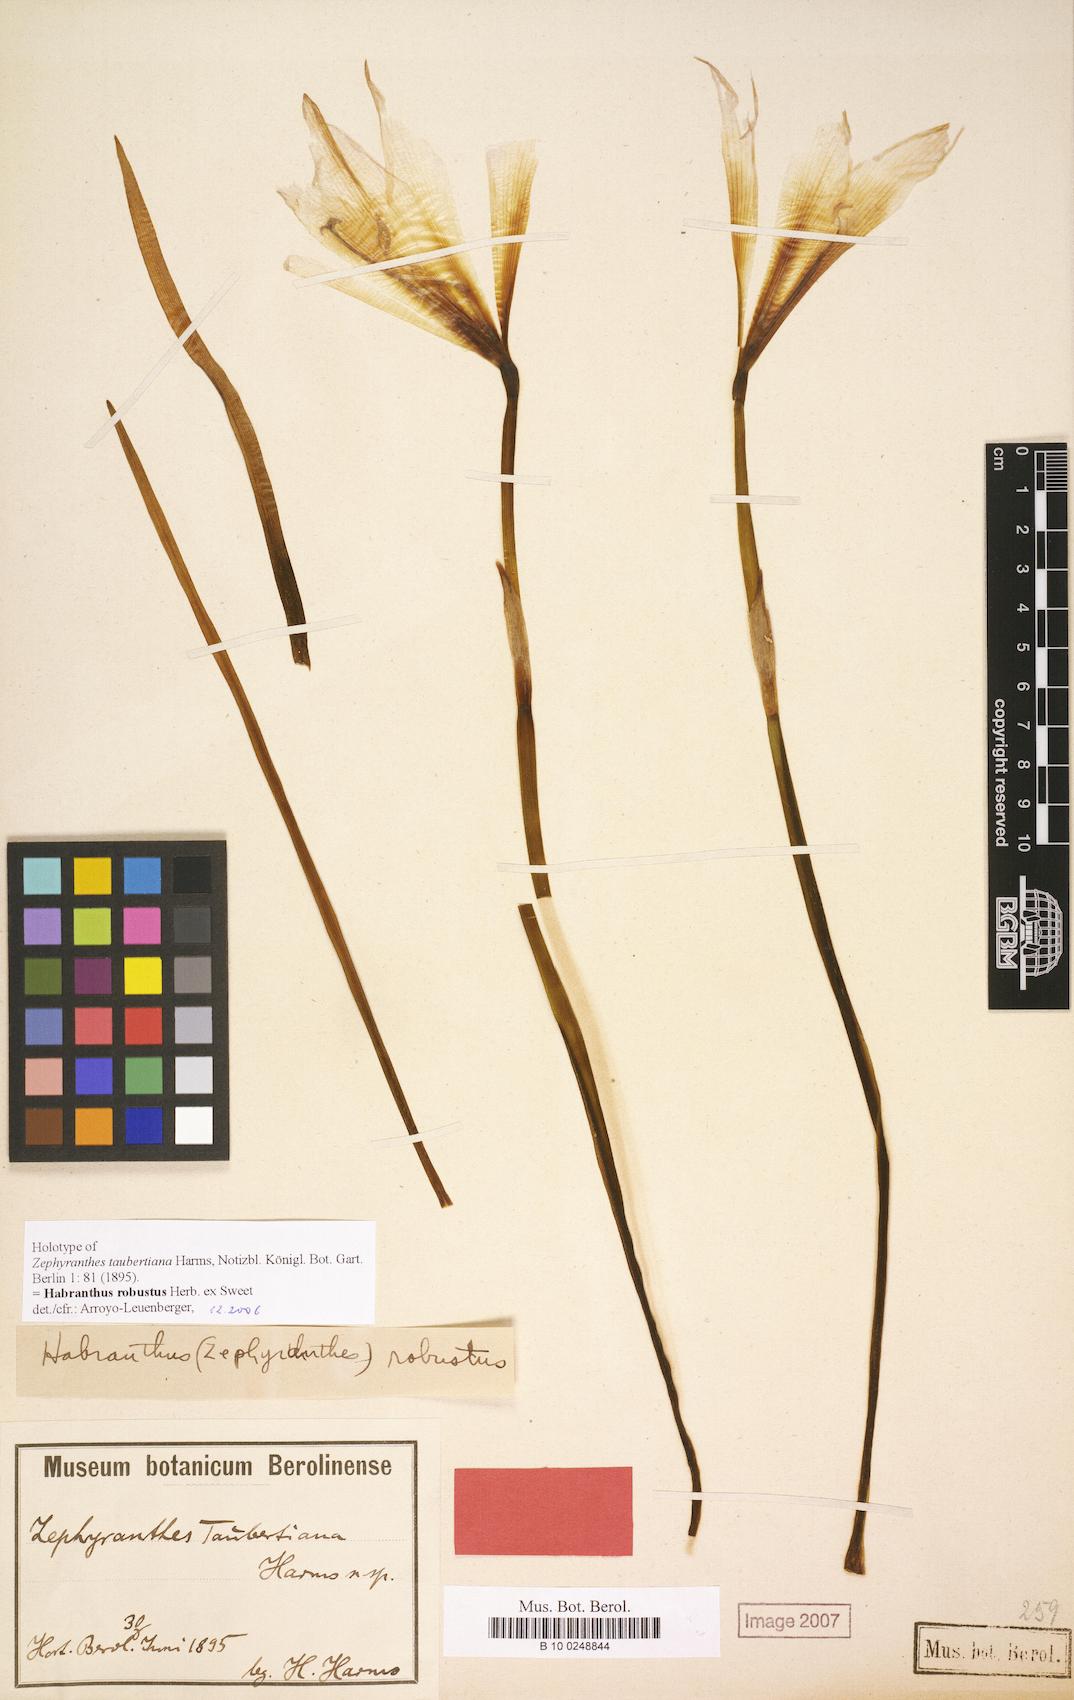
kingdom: Plantae
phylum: Tracheophyta
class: Liliopsida
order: Asparagales
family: Amaryllidaceae
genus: Zephyranthes
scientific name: Zephyranthes robusta
